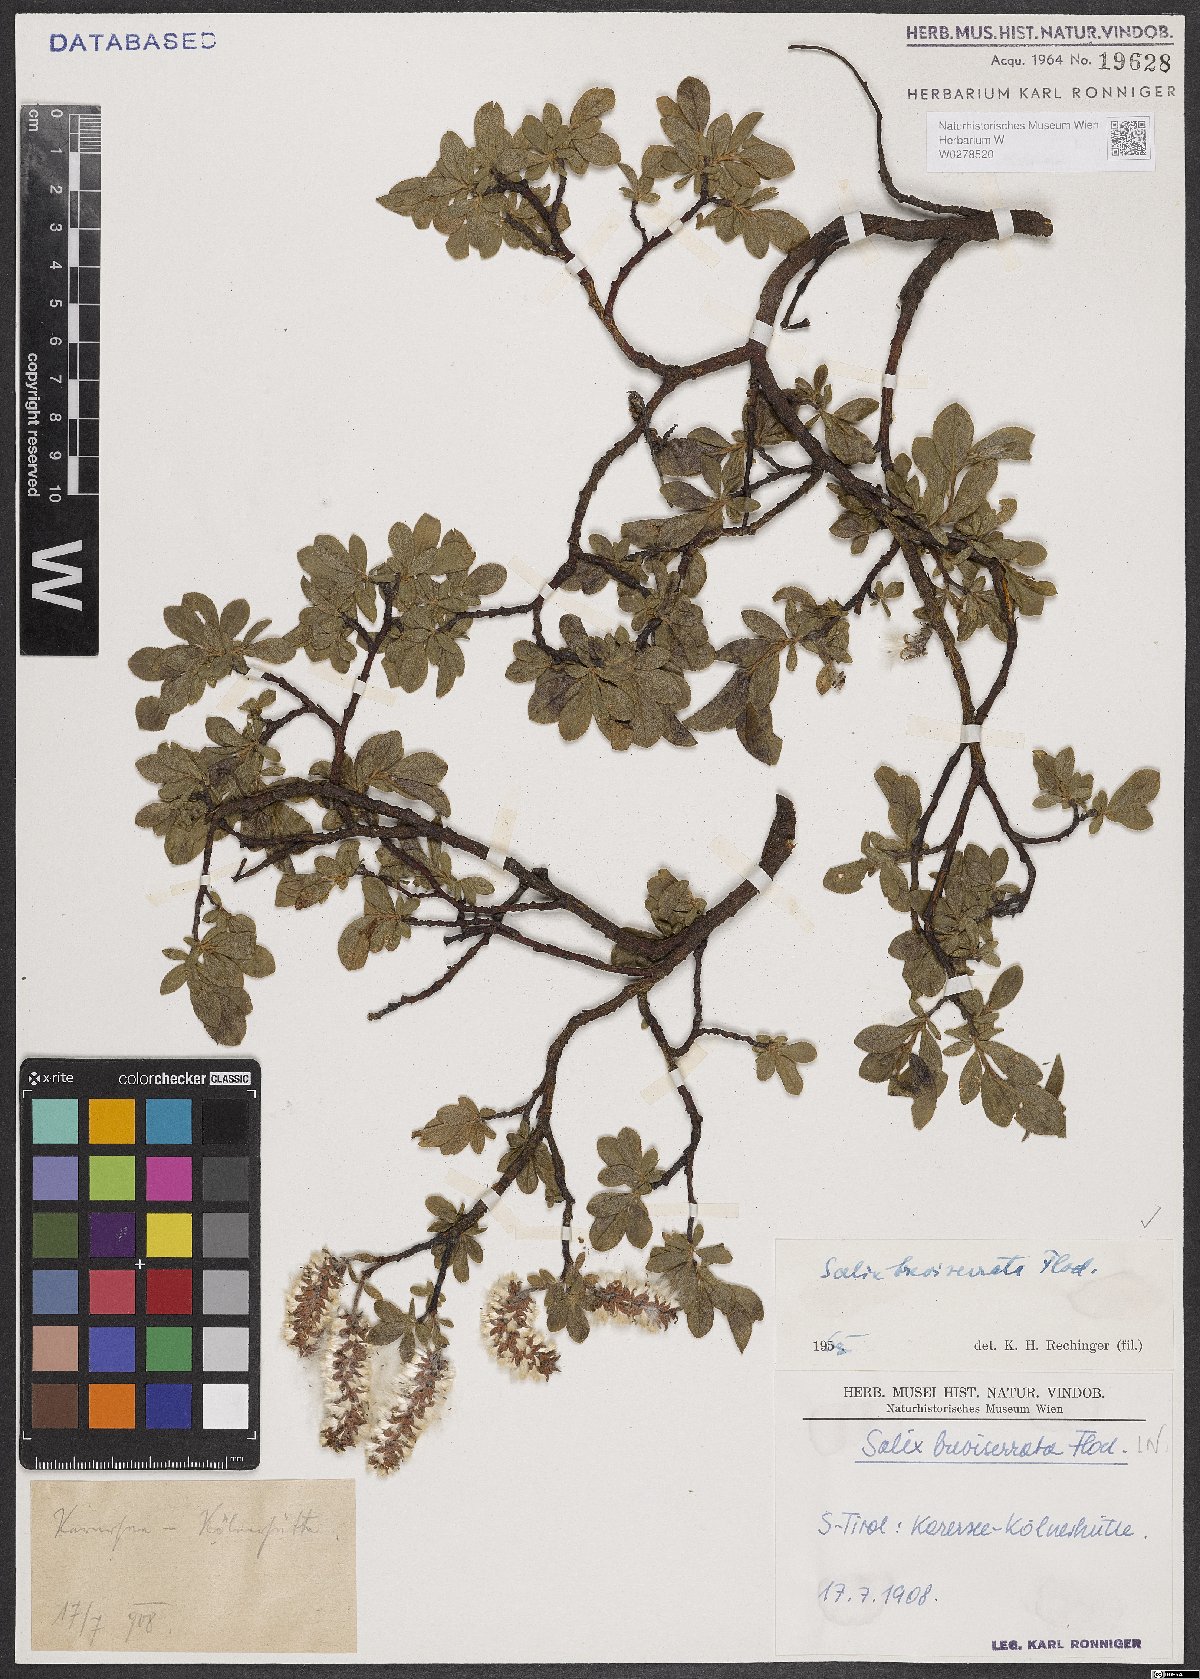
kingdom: Plantae
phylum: Tracheophyta
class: Magnoliopsida
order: Malpighiales
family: Salicaceae
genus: Salix
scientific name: Salix breviserrata
